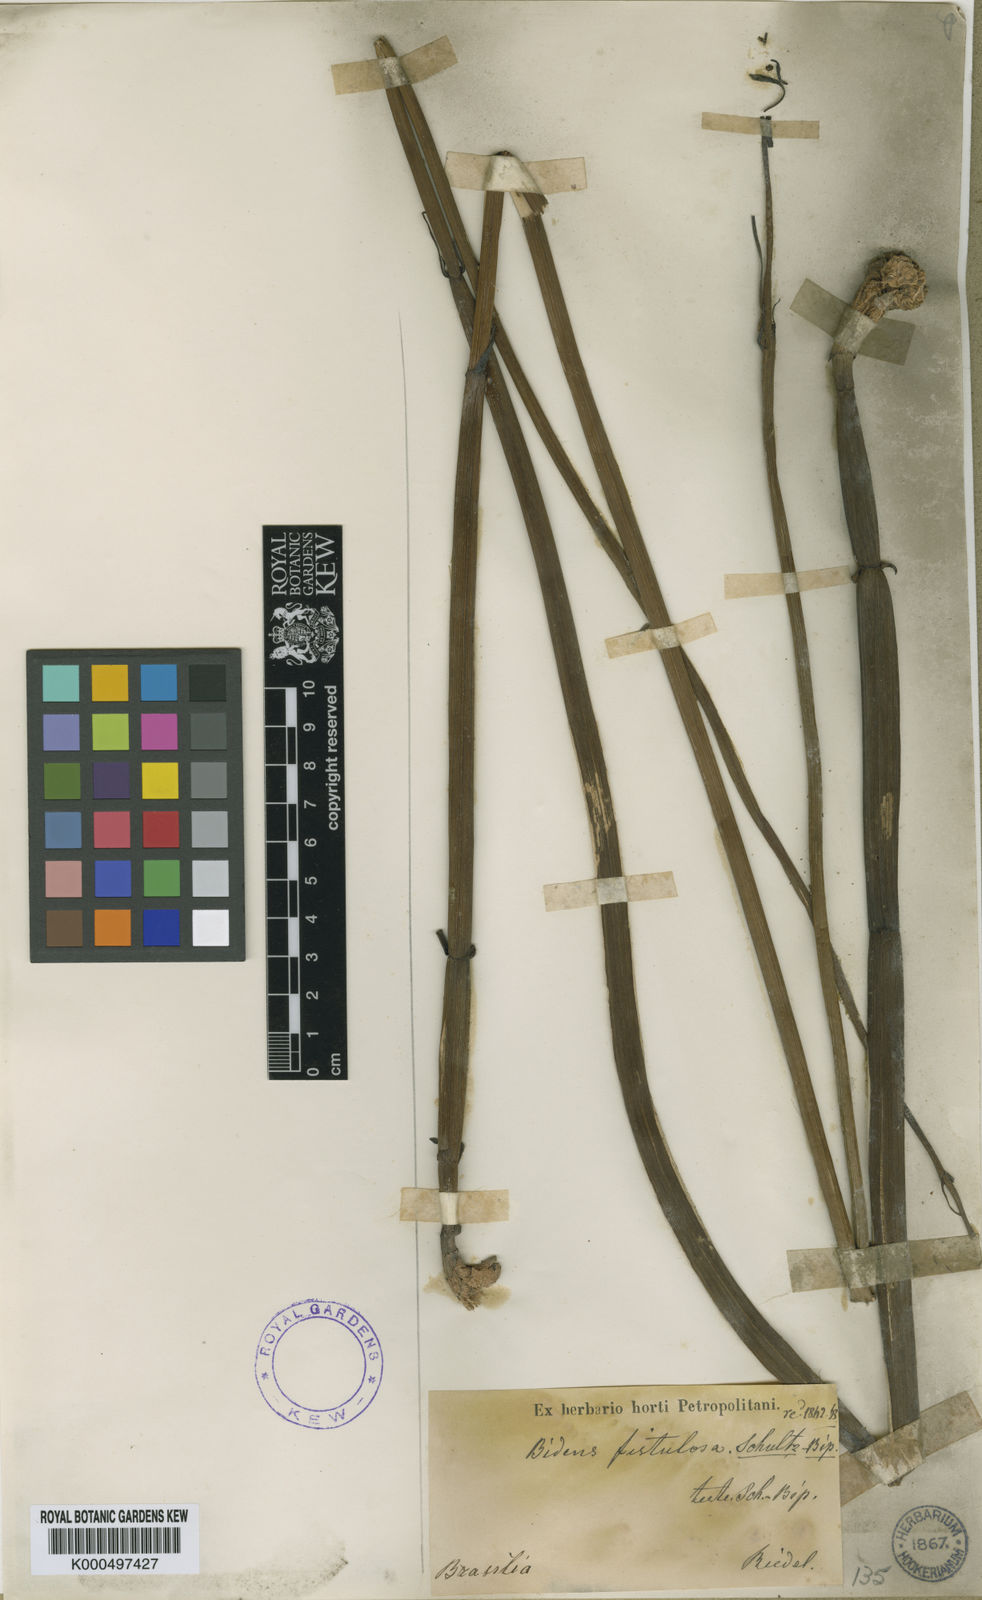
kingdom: Plantae
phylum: Tracheophyta
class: Magnoliopsida
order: Asterales
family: Asteraceae
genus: Bidens
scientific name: Bidens fistulosa
